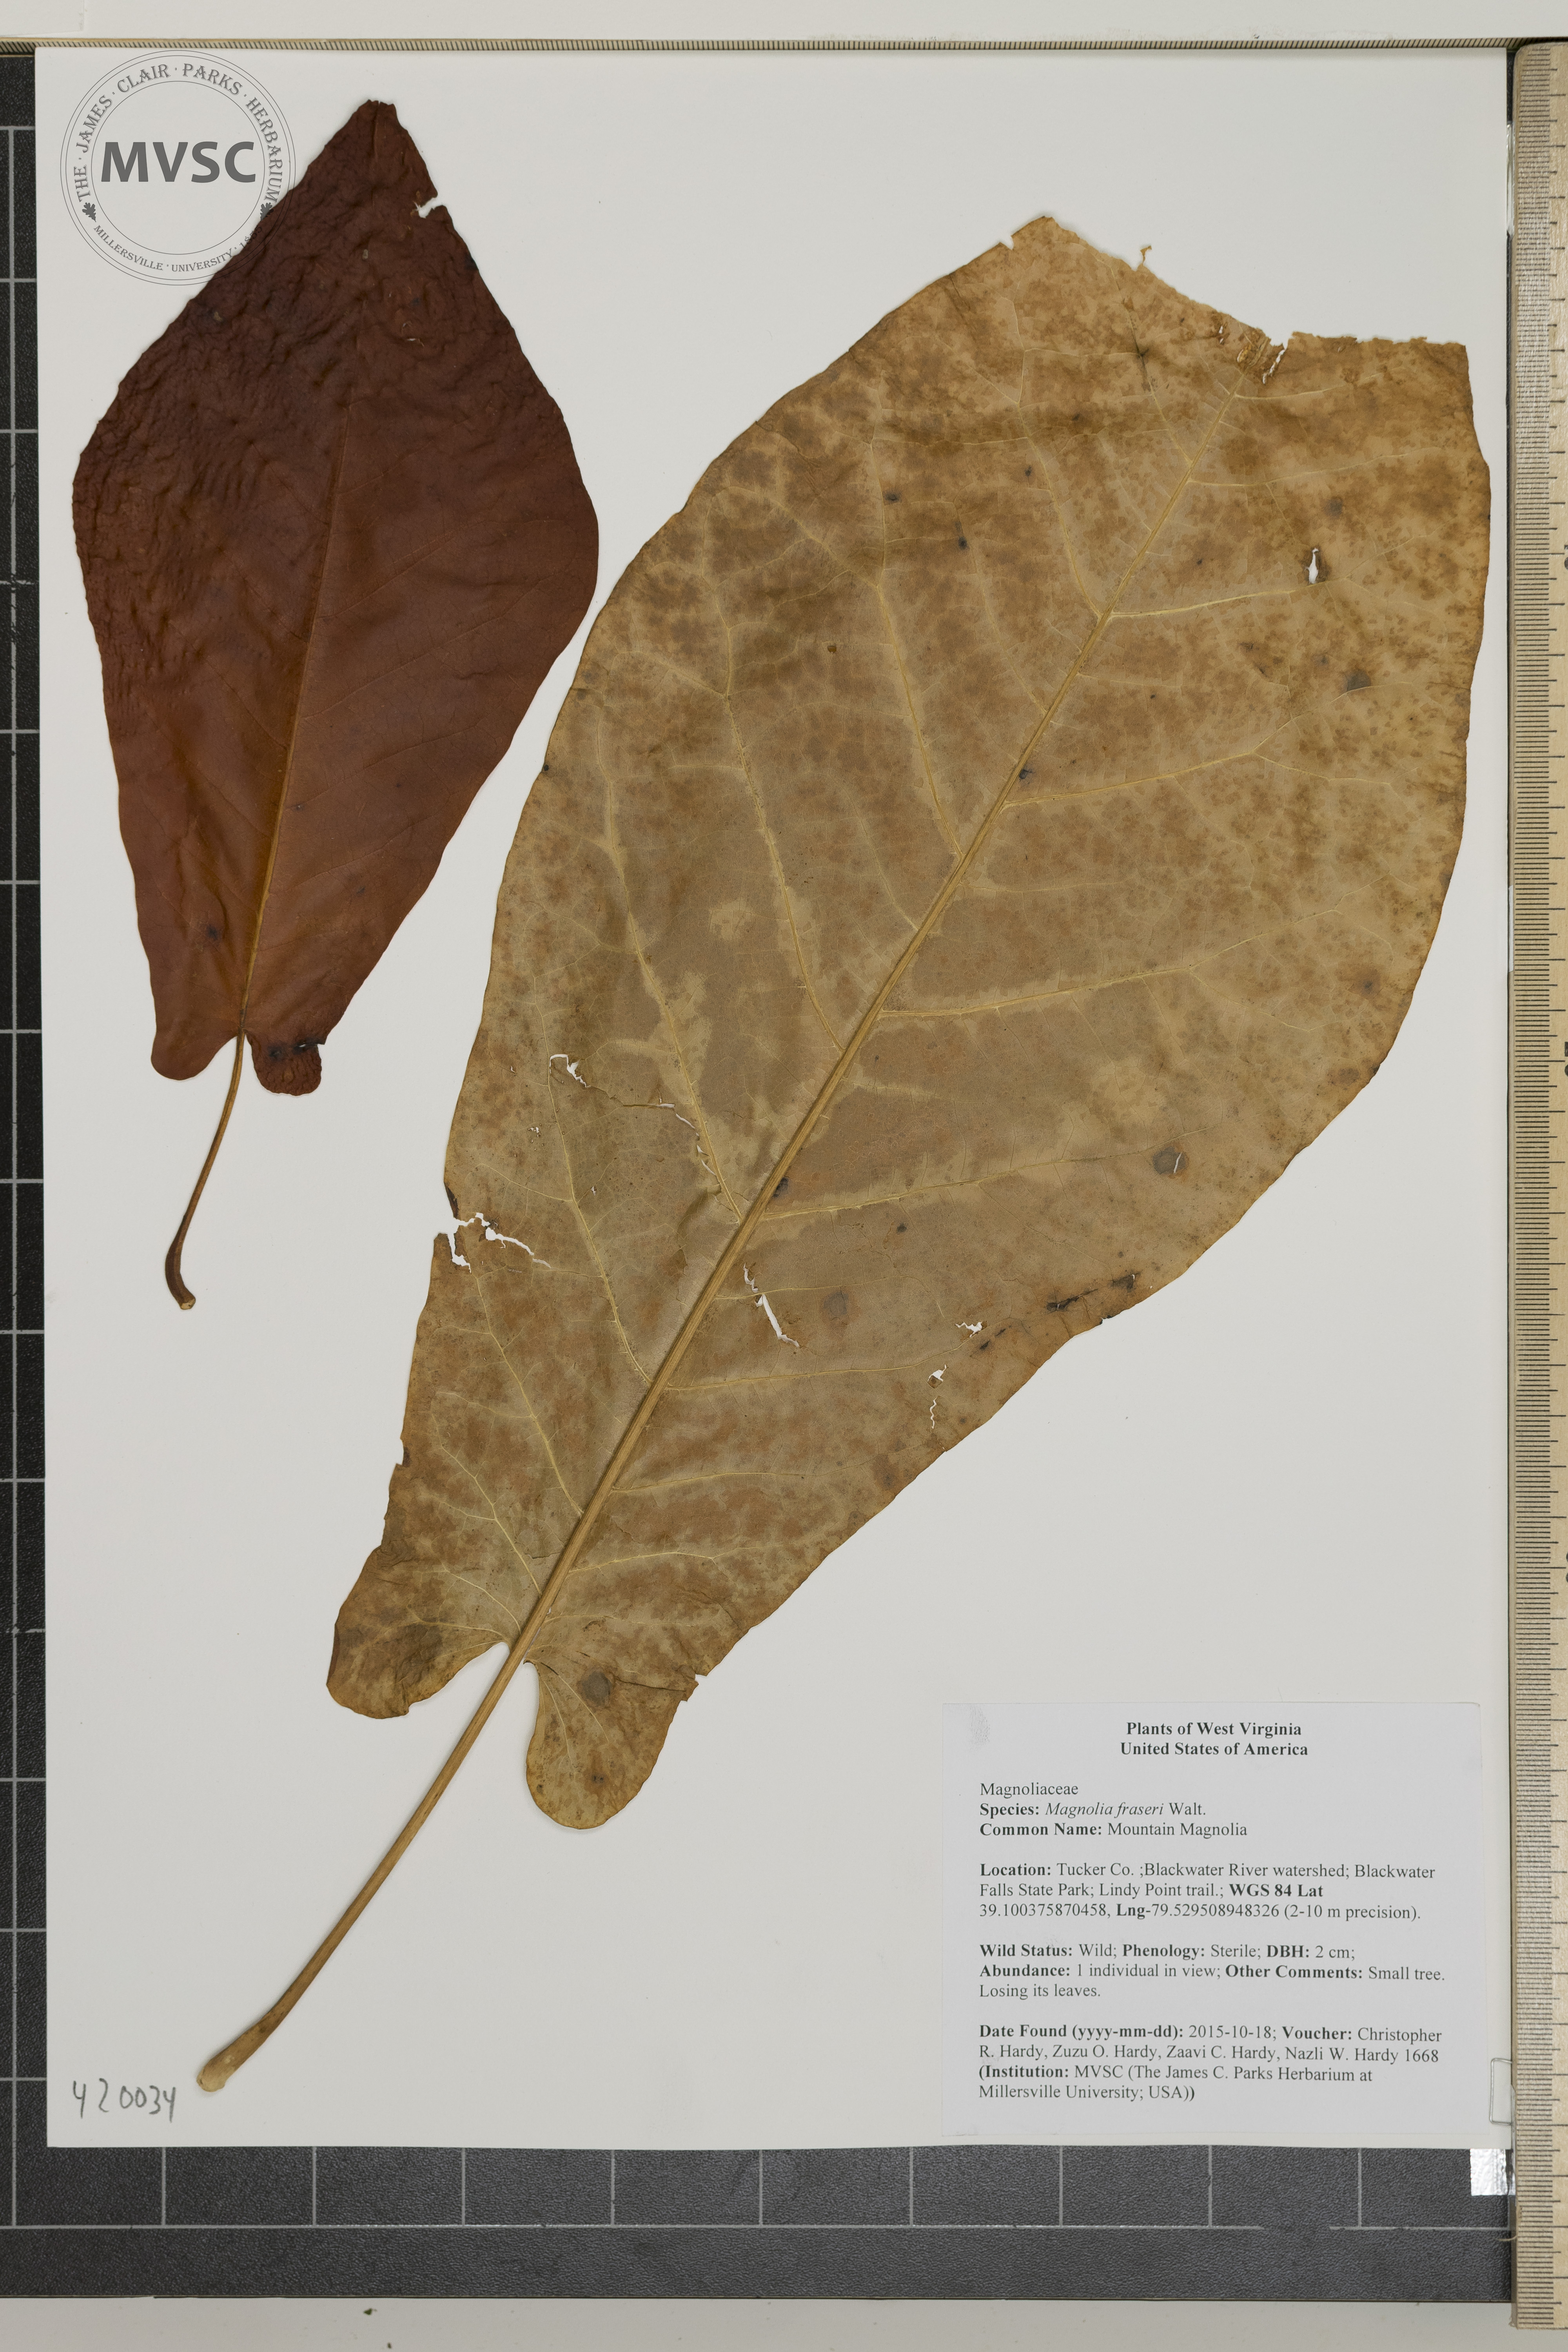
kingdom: Plantae
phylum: Tracheophyta
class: Magnoliopsida
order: Magnoliales
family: Magnoliaceae
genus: Magnolia
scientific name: Magnolia fraseri
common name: Mountain Magnolia
